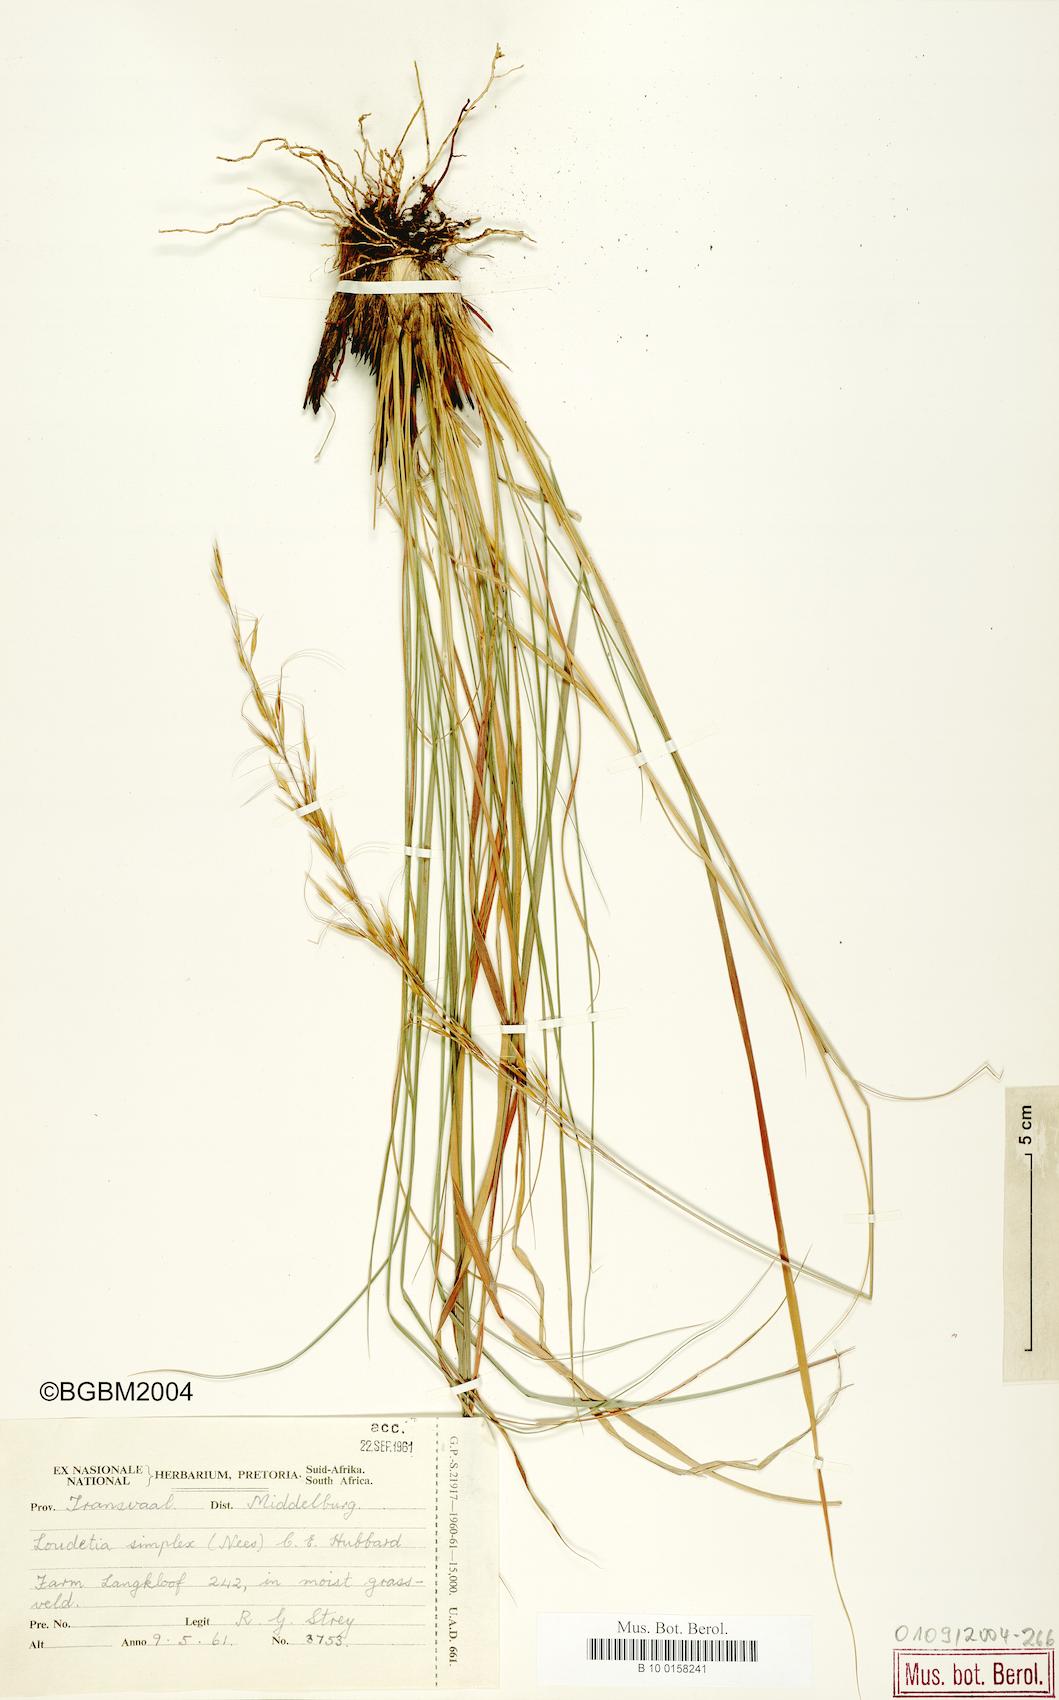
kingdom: Plantae
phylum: Tracheophyta
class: Liliopsida
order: Poales
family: Poaceae
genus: Loudetia
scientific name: Loudetia simplex
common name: Common russet grass
